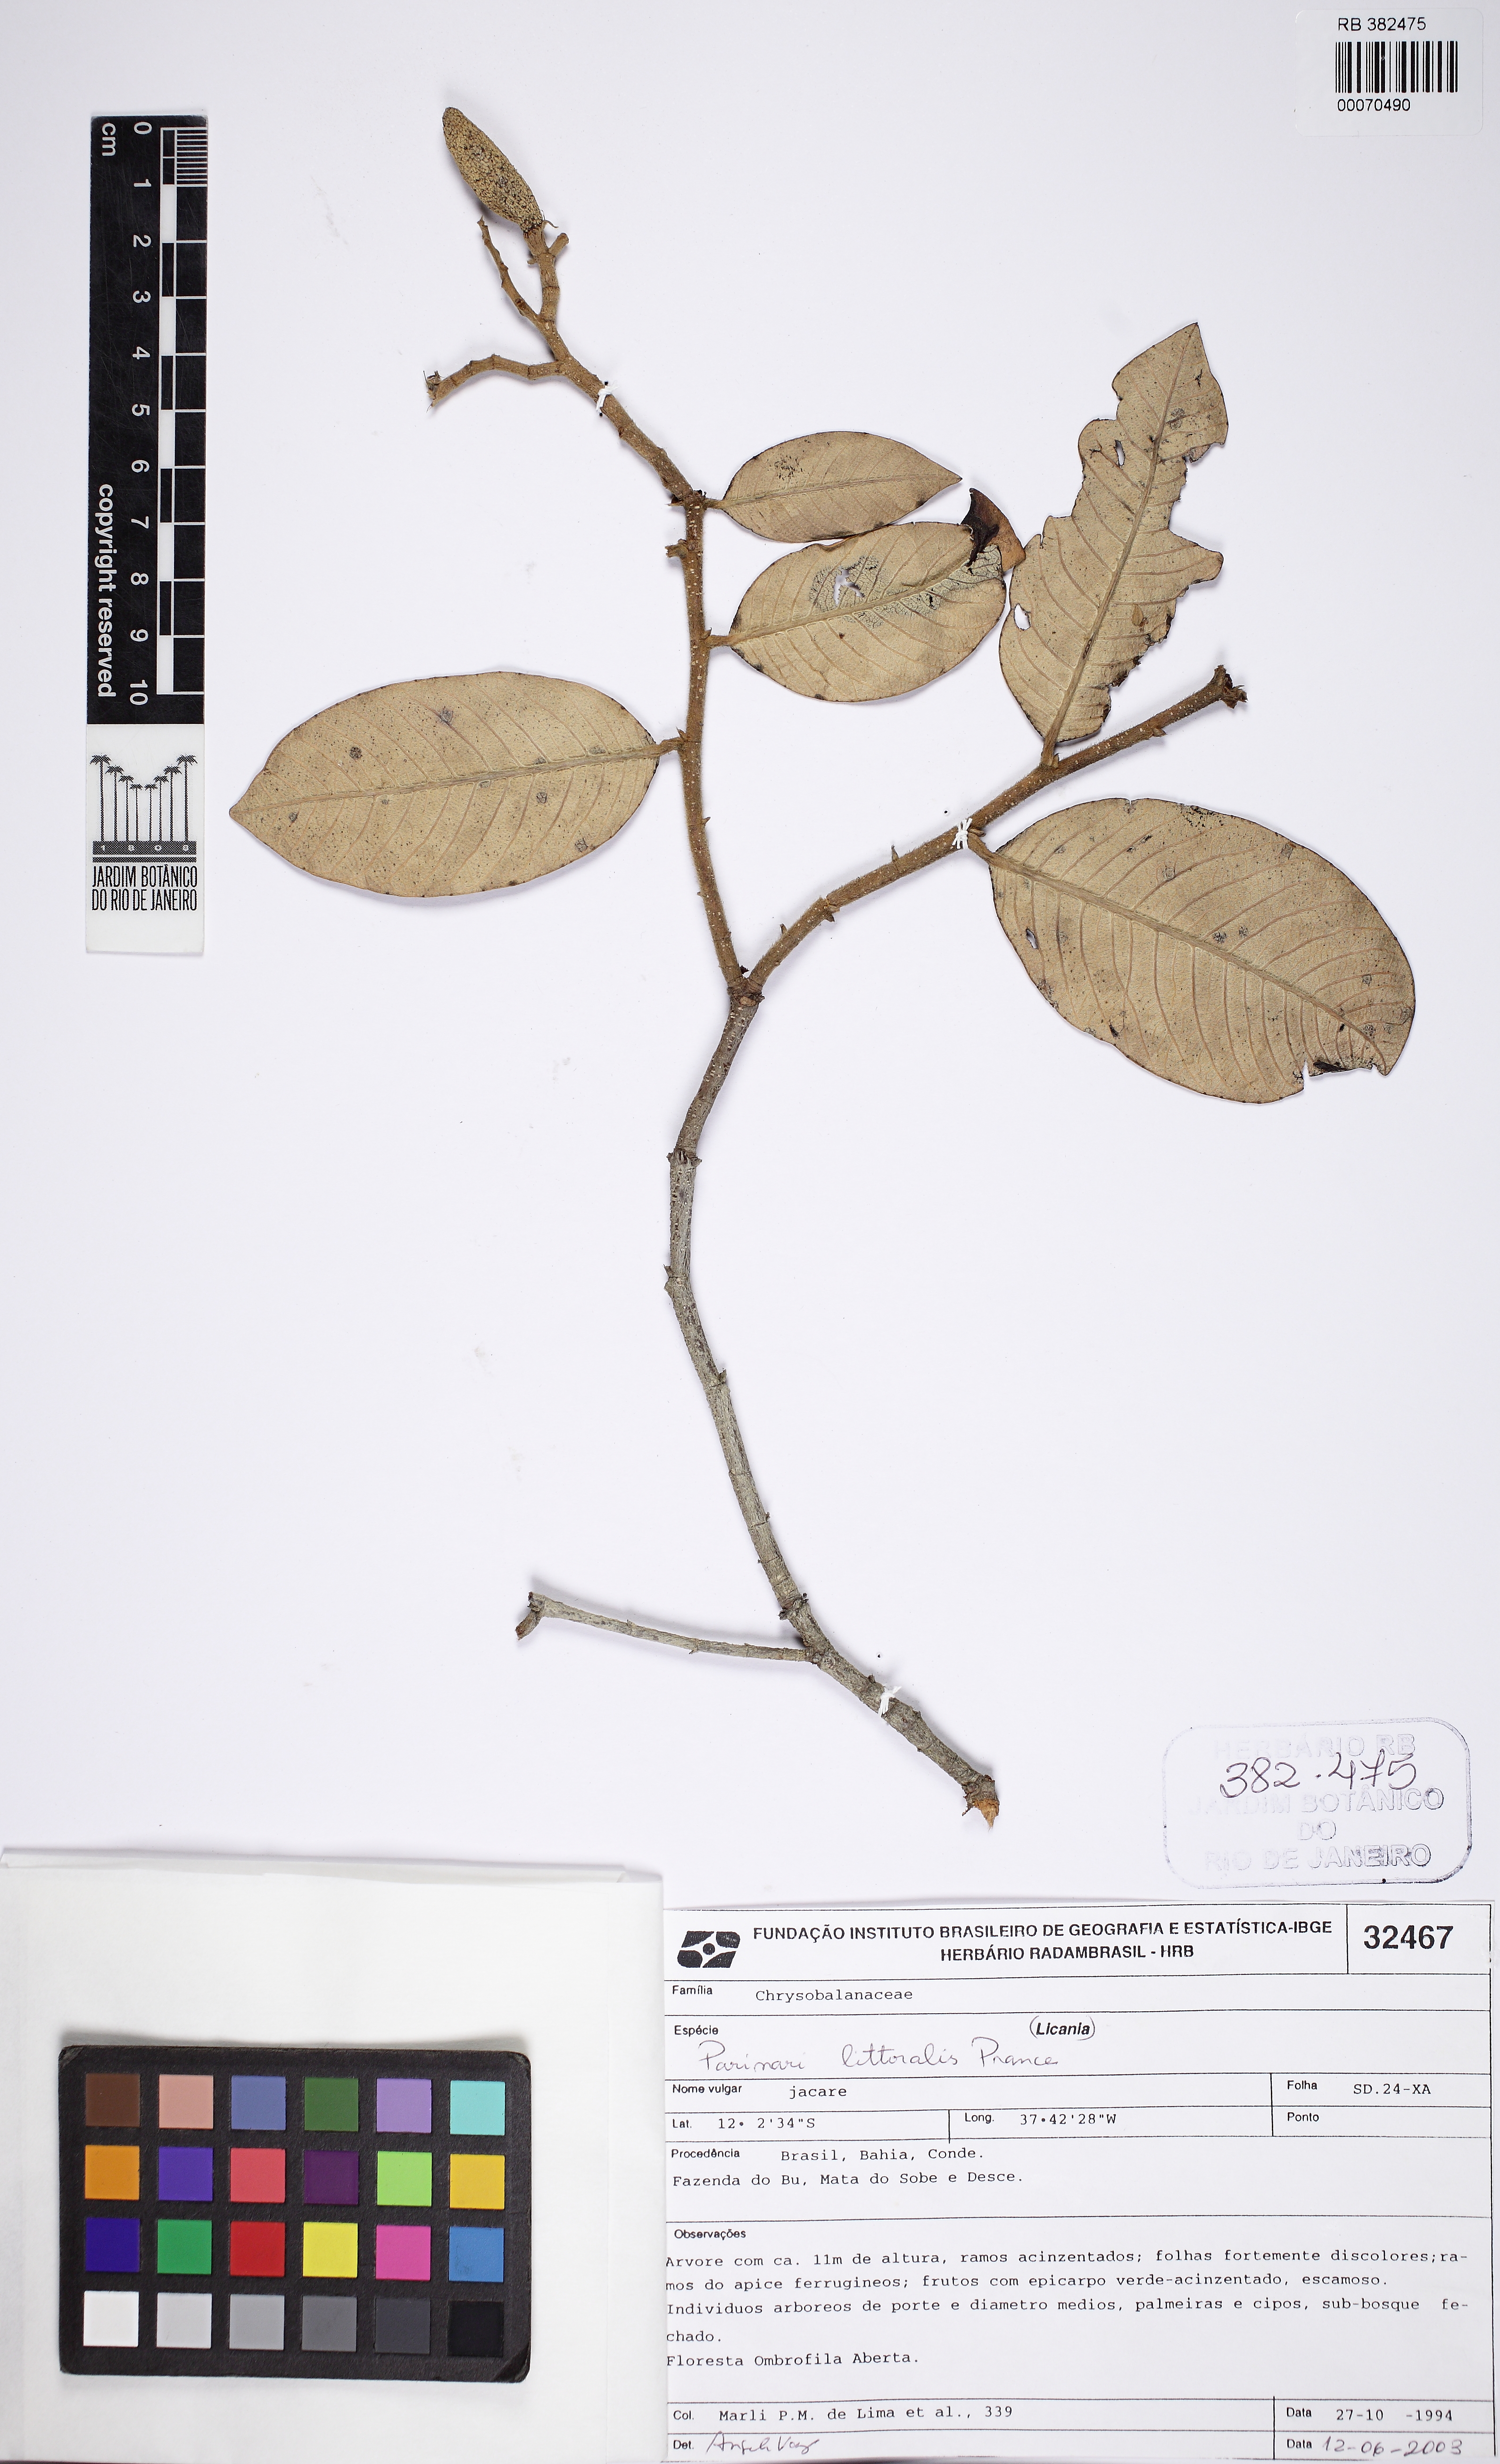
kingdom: Plantae
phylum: Tracheophyta
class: Magnoliopsida
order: Malpighiales
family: Chrysobalanaceae
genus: Parinari
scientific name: Parinari littoralis
